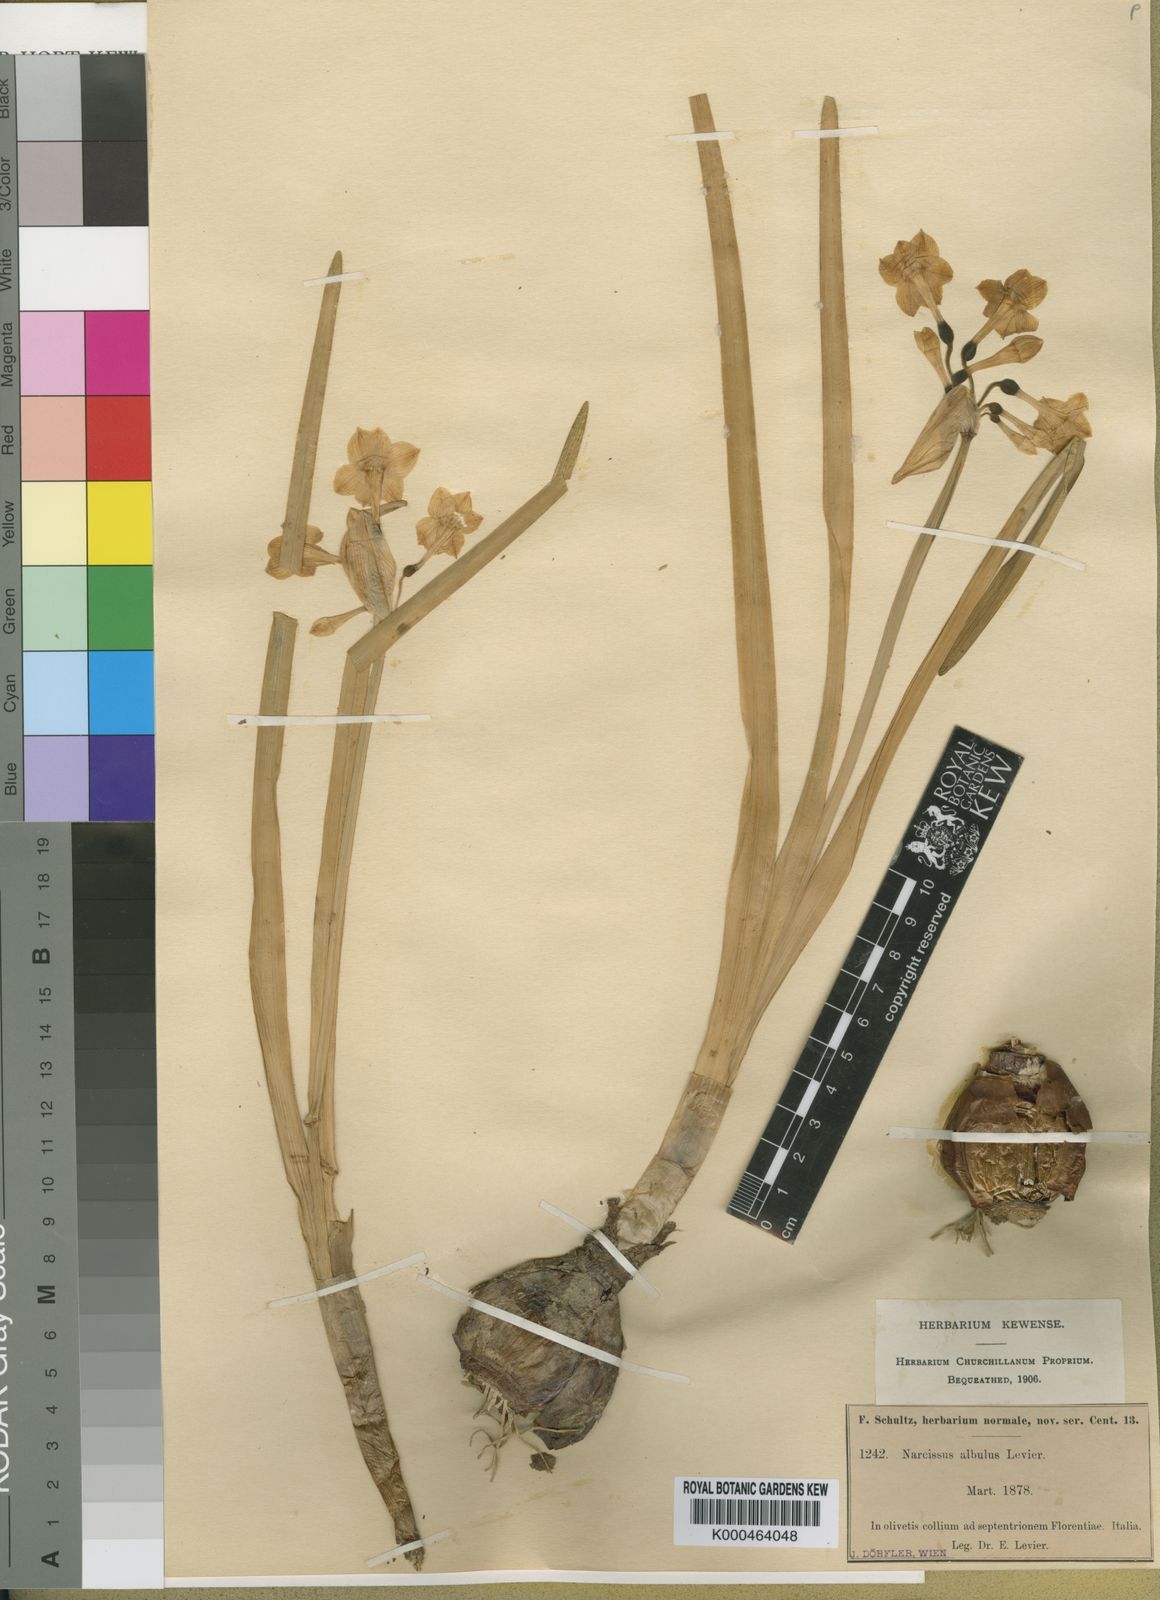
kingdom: Plantae
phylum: Tracheophyta
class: Liliopsida
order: Asparagales
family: Amaryllidaceae
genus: Narcissus
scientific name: Narcissus papyraceus
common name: Paper-white daffodil
